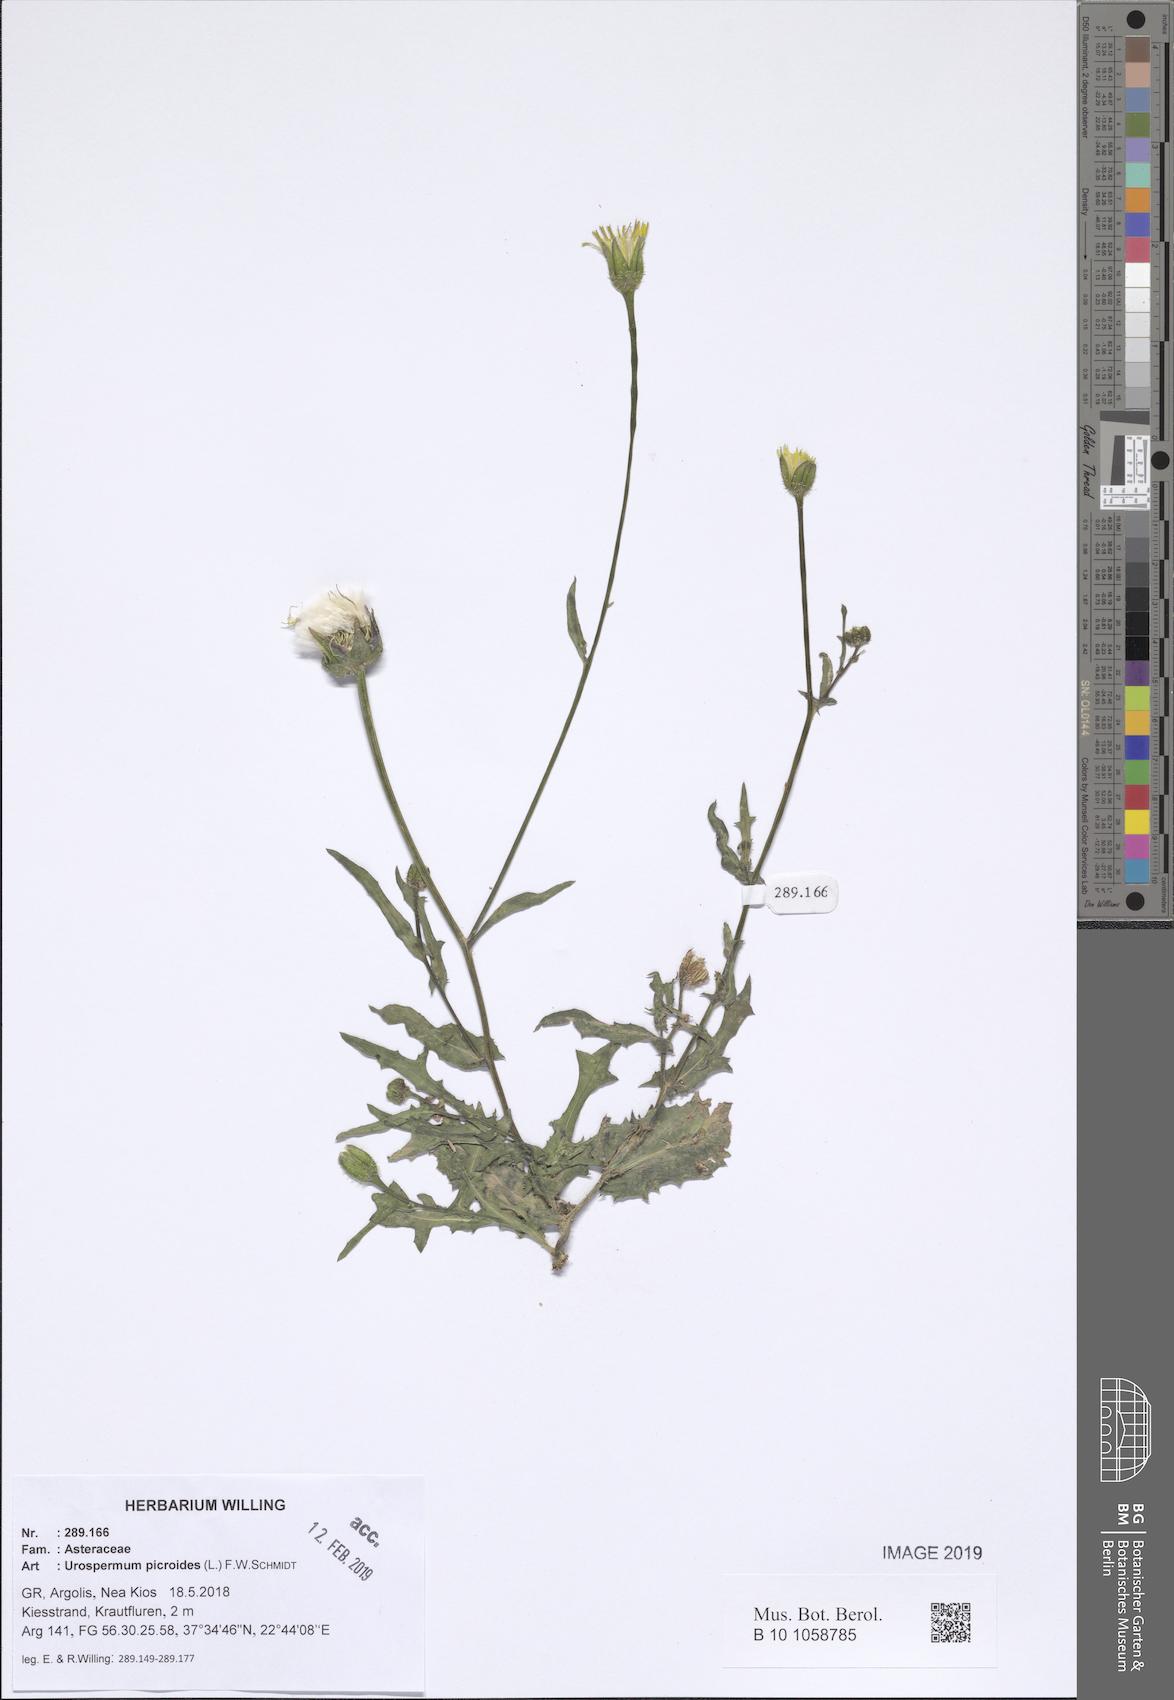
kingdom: Plantae
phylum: Tracheophyta
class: Magnoliopsida
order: Asterales
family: Asteraceae
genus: Urospermum
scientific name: Urospermum picroides
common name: False hawkbit
